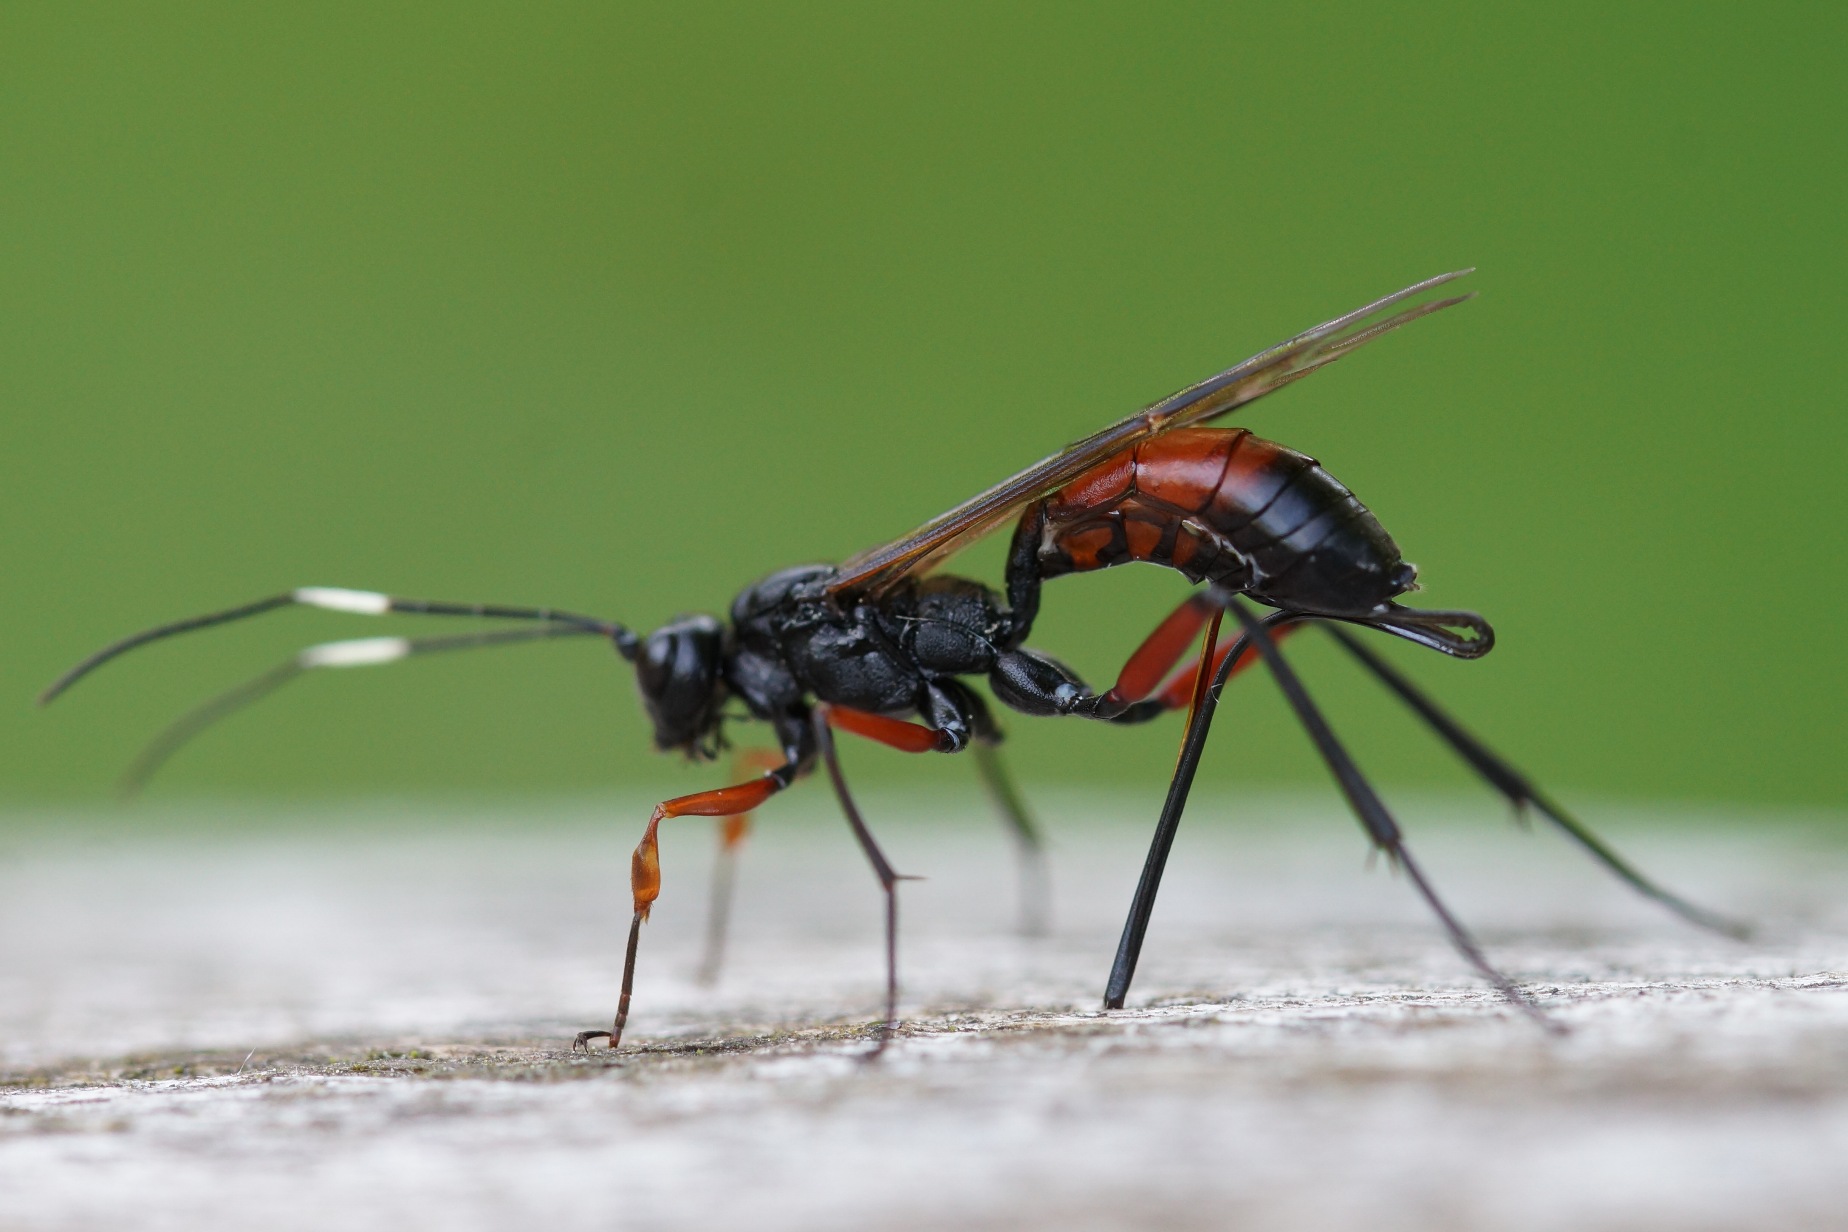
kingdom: Animalia
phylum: Arthropoda
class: Insecta
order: Hymenoptera
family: Ichneumonidae
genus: Echthrus
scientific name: Echthrus reluctator
